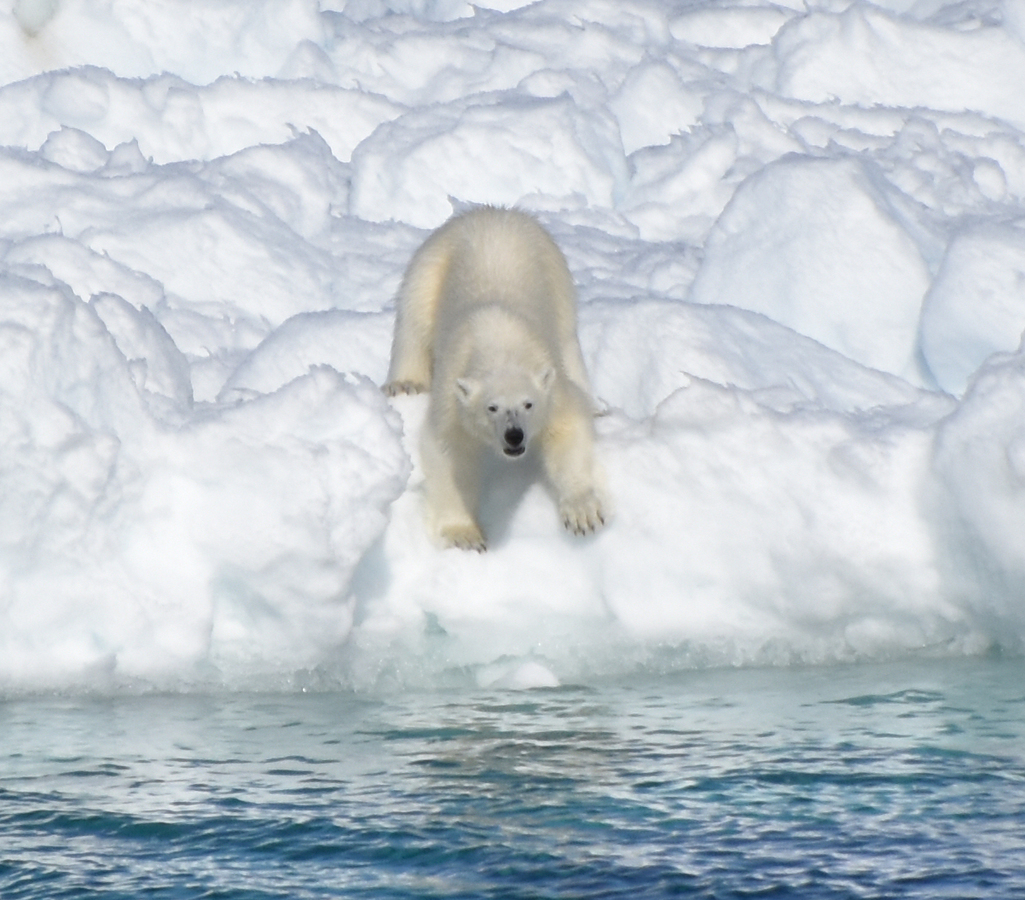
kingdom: Animalia
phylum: Chordata
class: Mammalia
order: Carnivora
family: Ursidae
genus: Ursus
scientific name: Ursus maritimus
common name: Polar Bear
